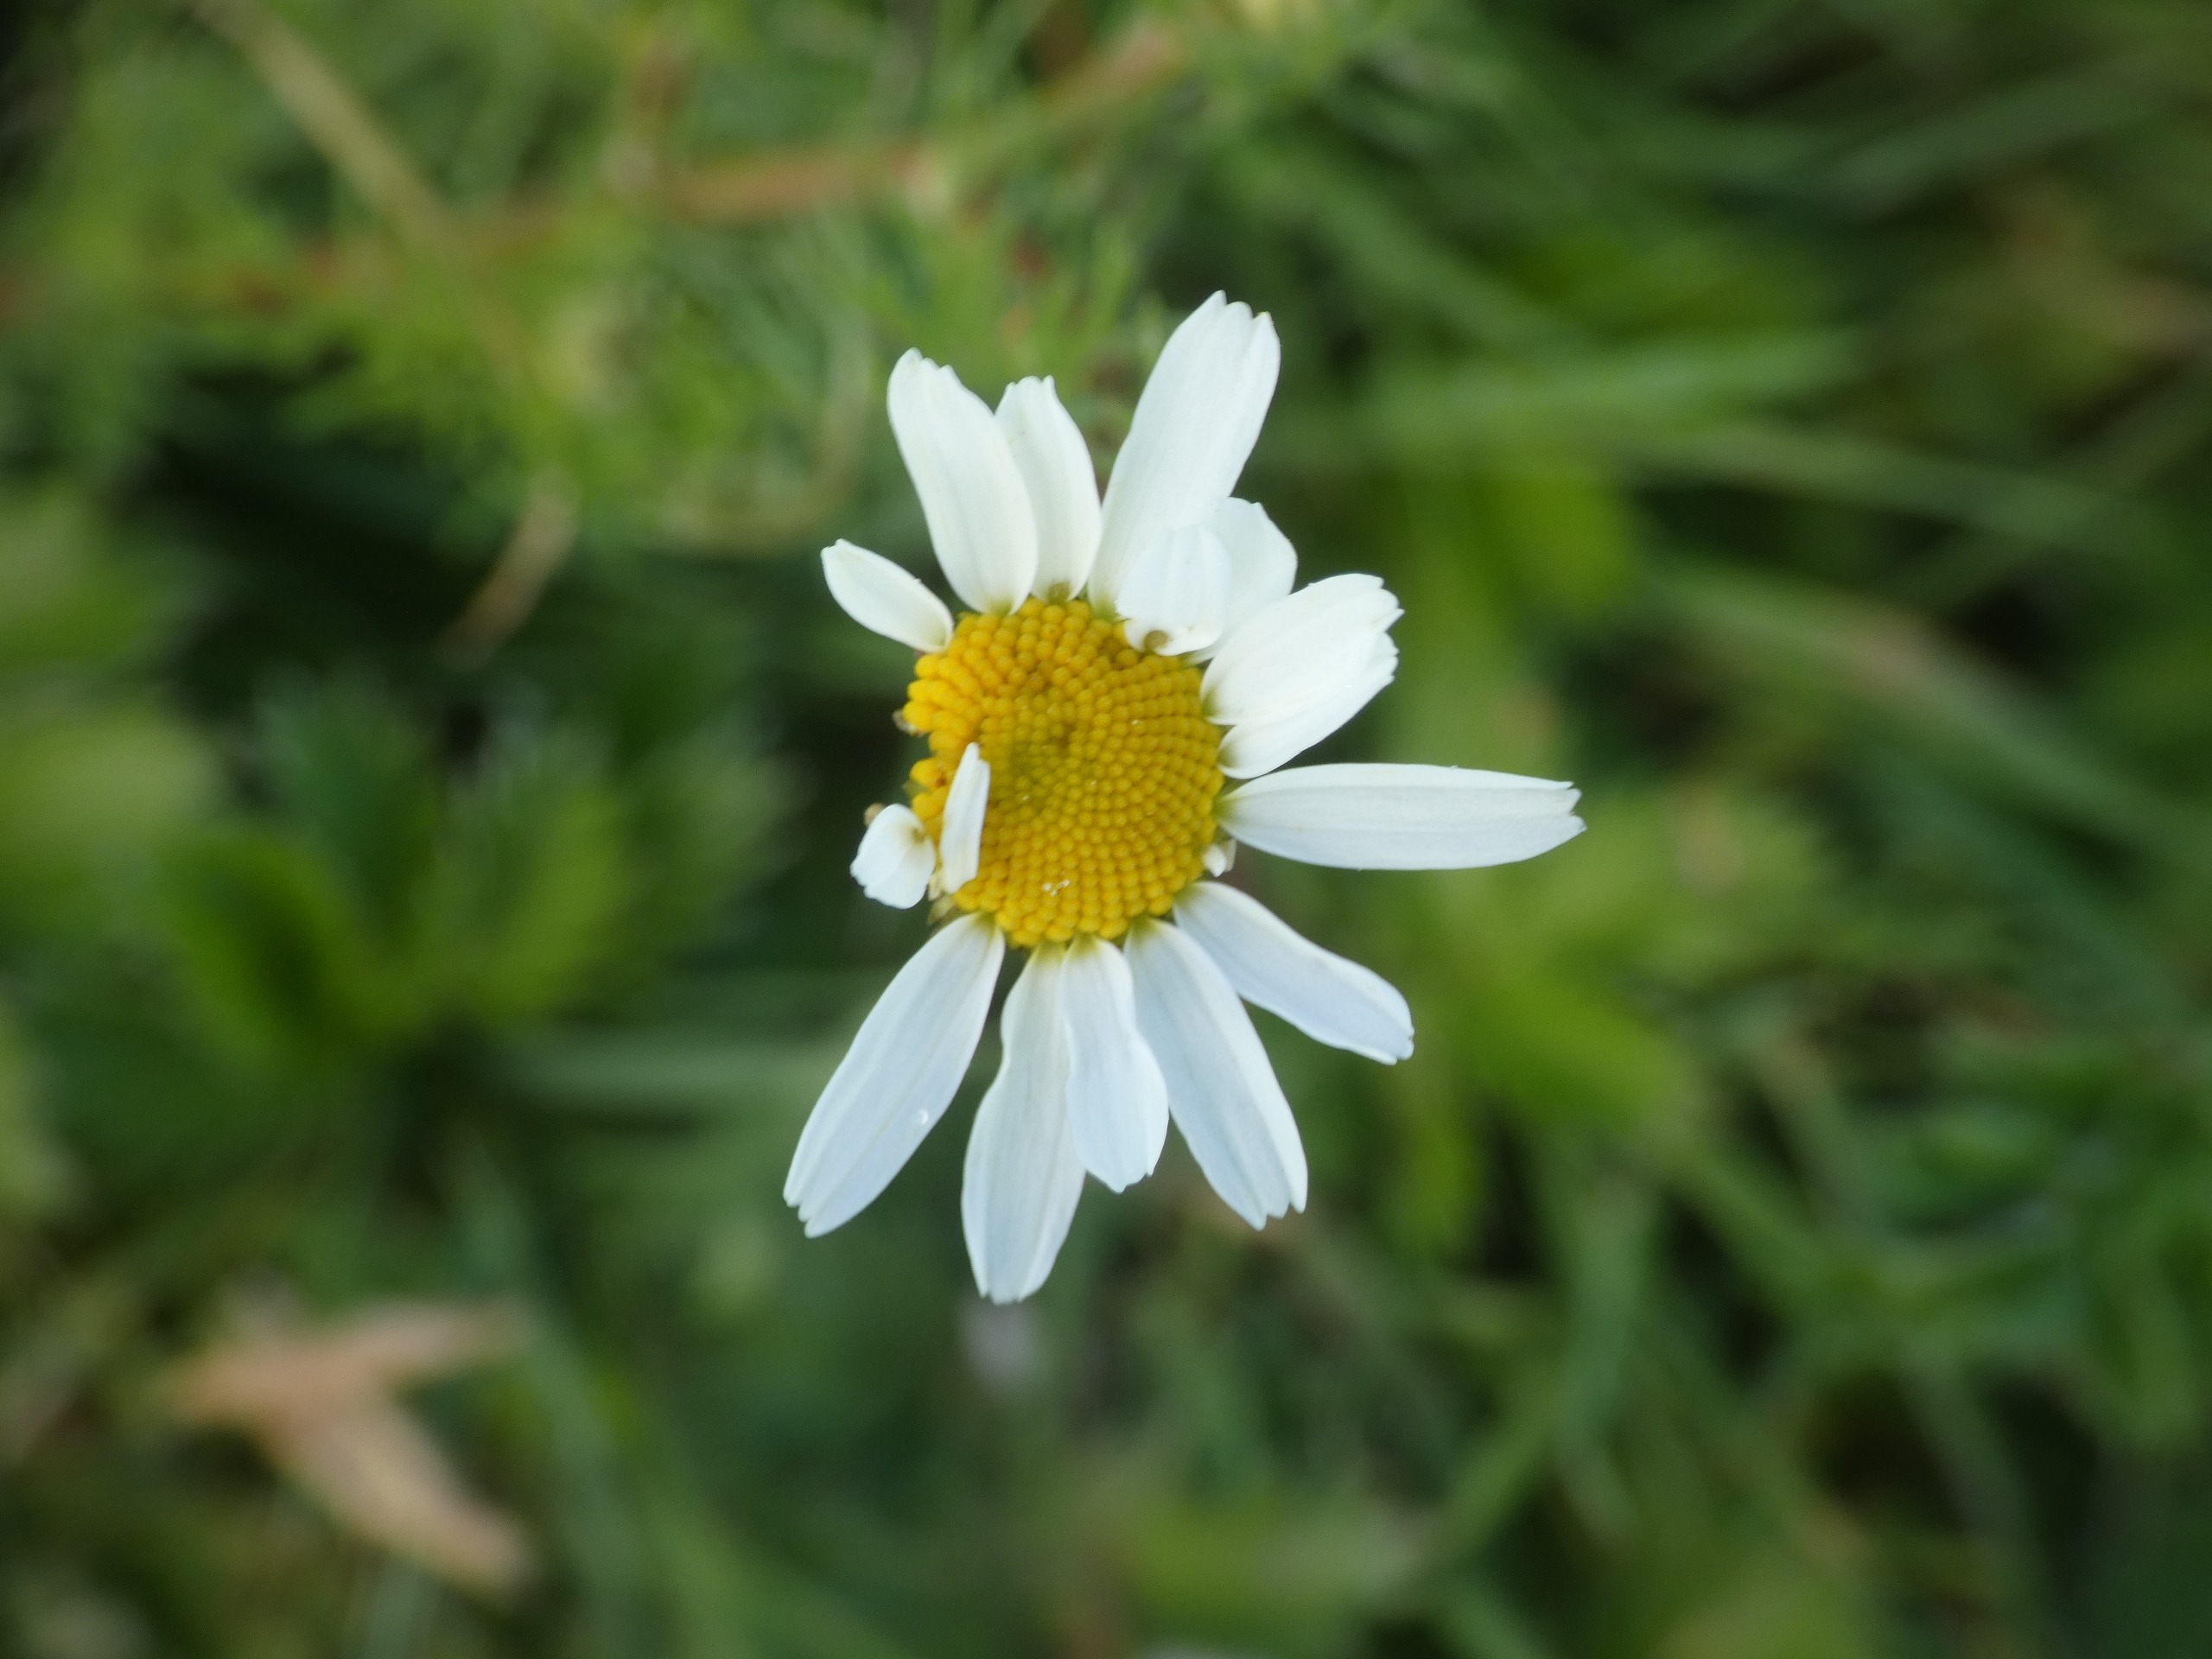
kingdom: Plantae
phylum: Tracheophyta
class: Magnoliopsida
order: Asterales
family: Asteraceae
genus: Tripleurospermum
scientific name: Tripleurospermum maritimum
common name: Strand-kamille
